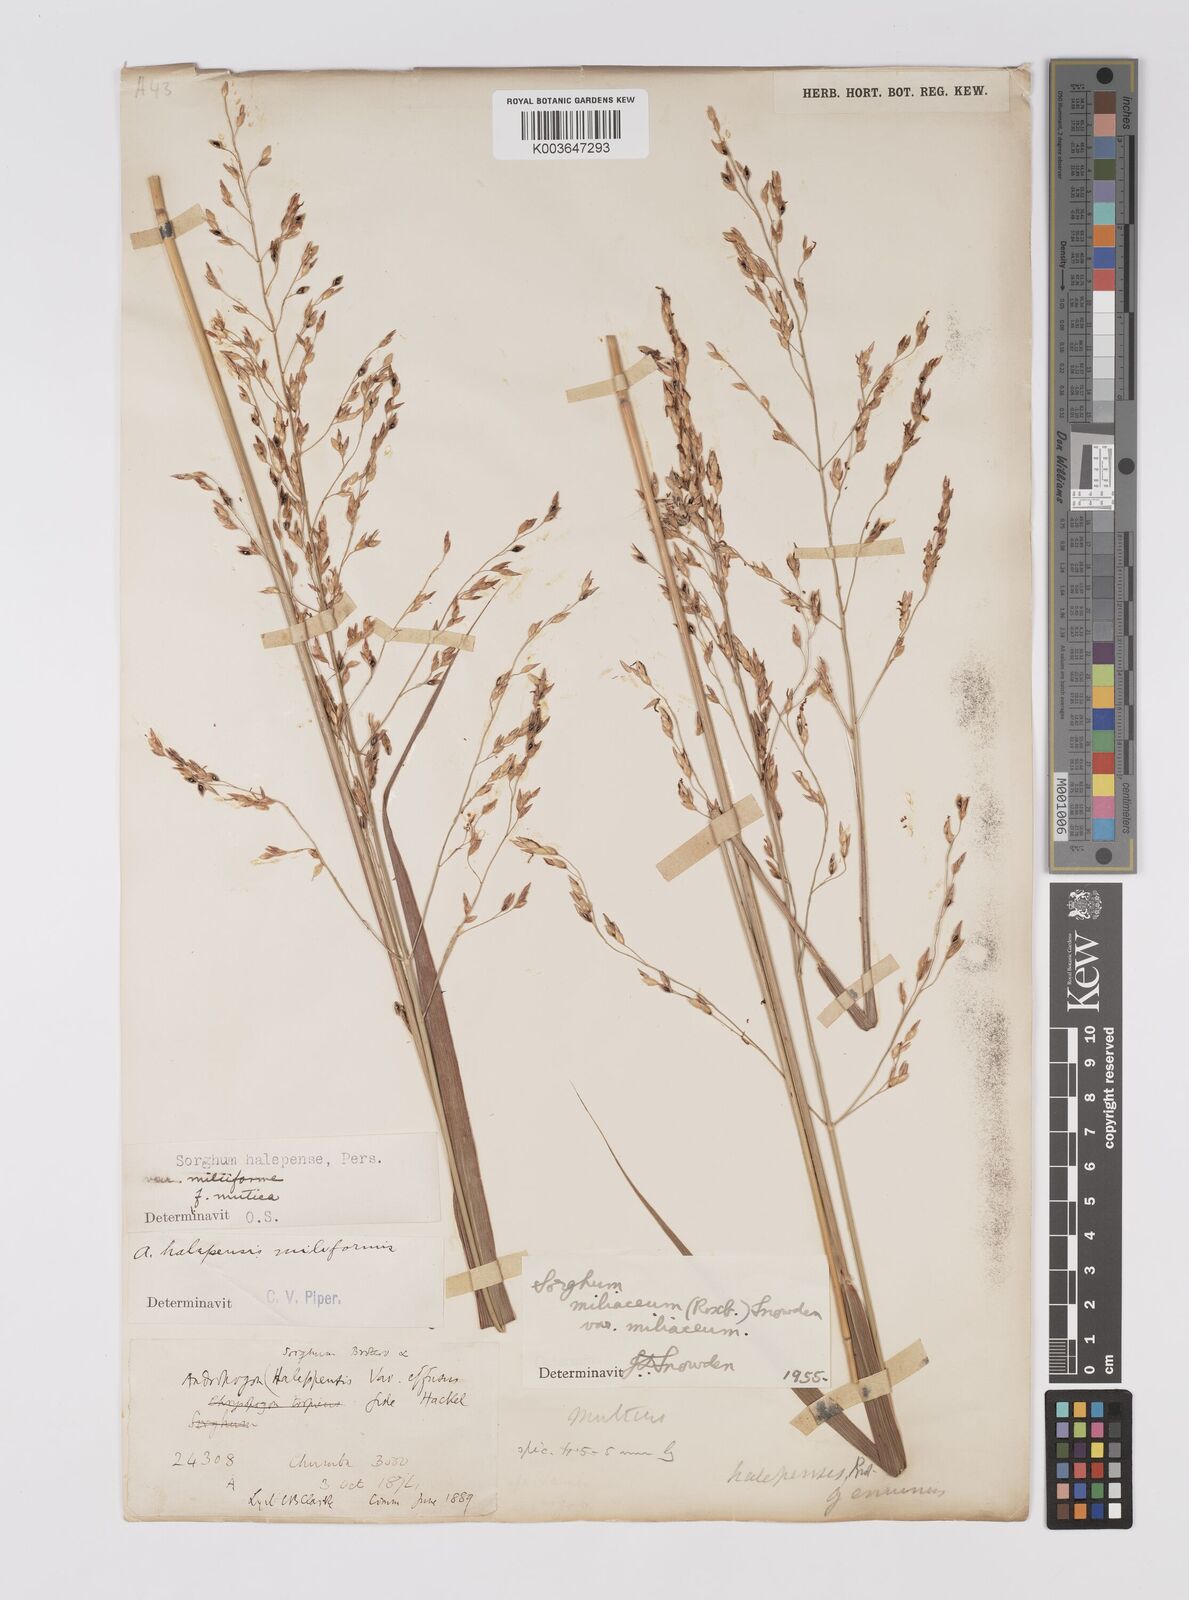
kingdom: Plantae
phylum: Tracheophyta
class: Liliopsida
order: Poales
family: Poaceae
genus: Sorghum
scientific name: Sorghum halepense
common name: Johnson-grass
